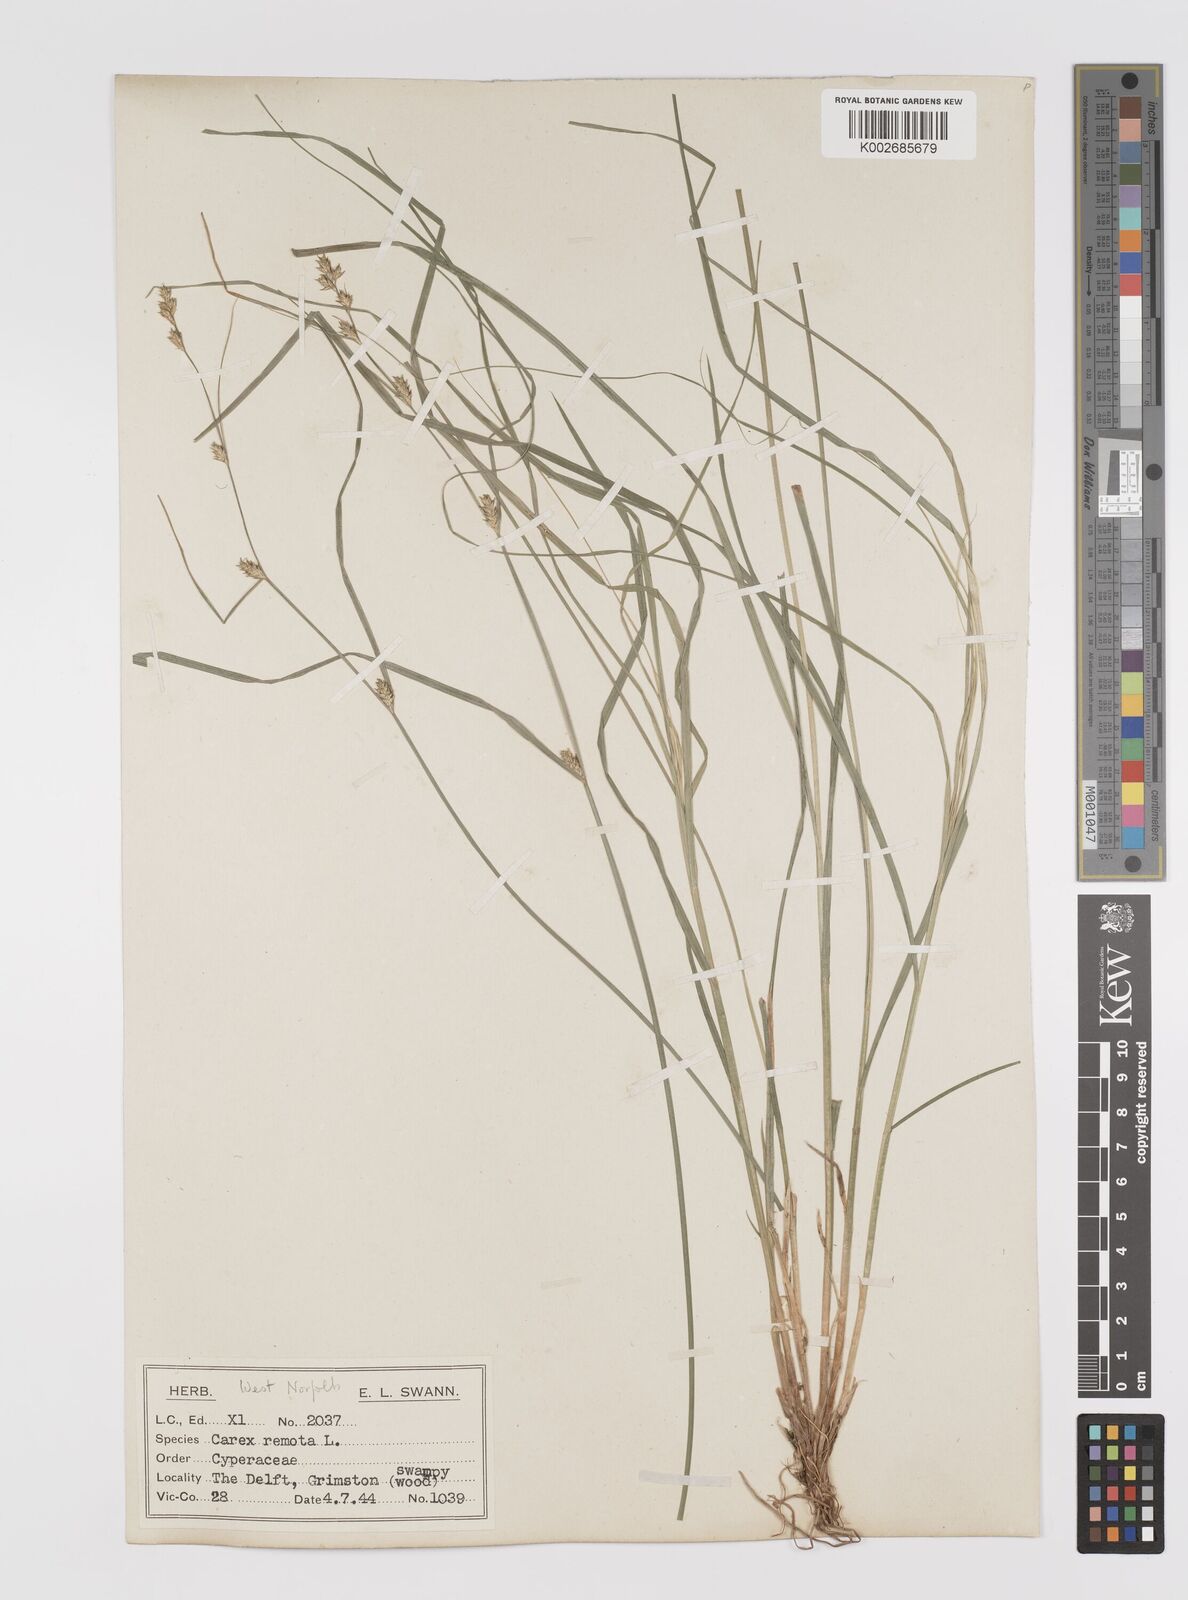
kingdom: Plantae
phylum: Tracheophyta
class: Liliopsida
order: Poales
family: Cyperaceae
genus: Carex
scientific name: Carex remota
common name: Remote sedge
